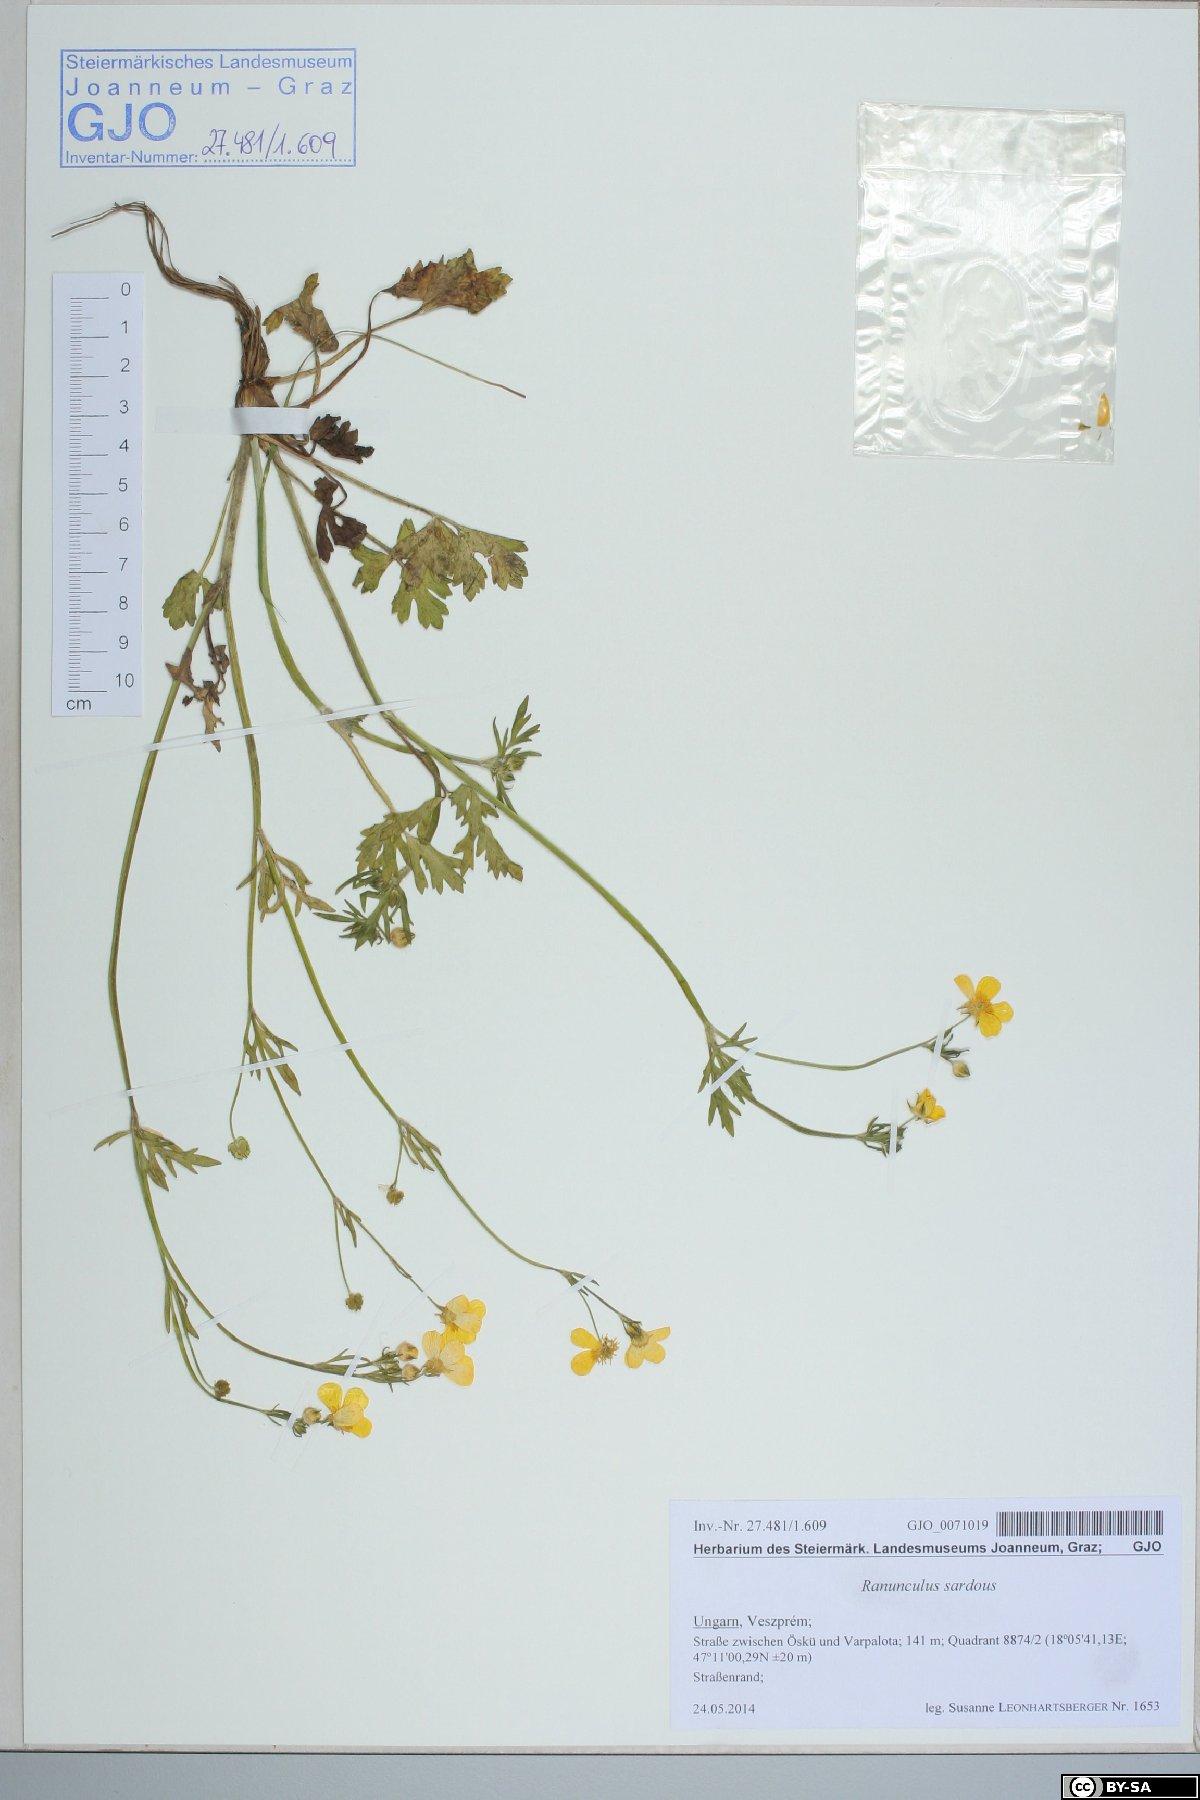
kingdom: Plantae
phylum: Tracheophyta
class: Magnoliopsida
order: Ranunculales
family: Ranunculaceae
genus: Ranunculus
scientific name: Ranunculus sardous
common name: Hairy buttercup
